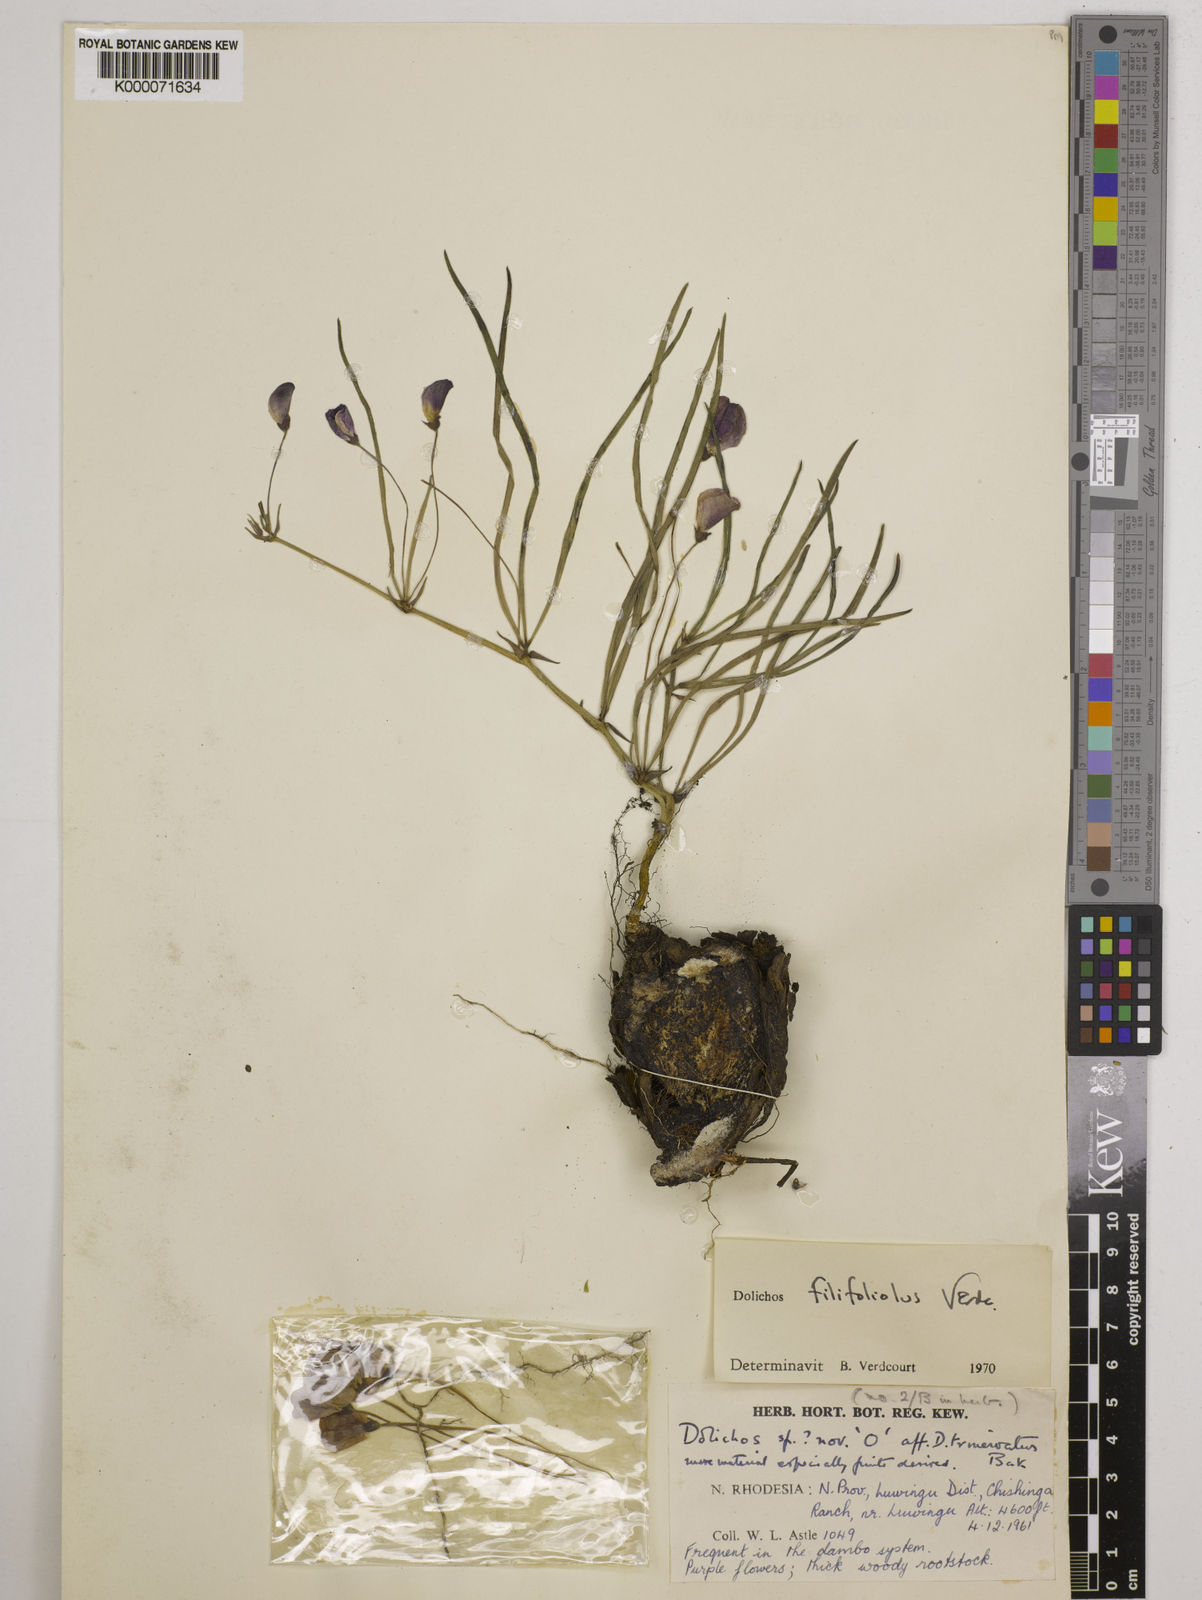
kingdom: Plantae
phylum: Tracheophyta
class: Magnoliopsida
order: Fabales
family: Fabaceae
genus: Dolichos
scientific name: Dolichos filifoliolus
